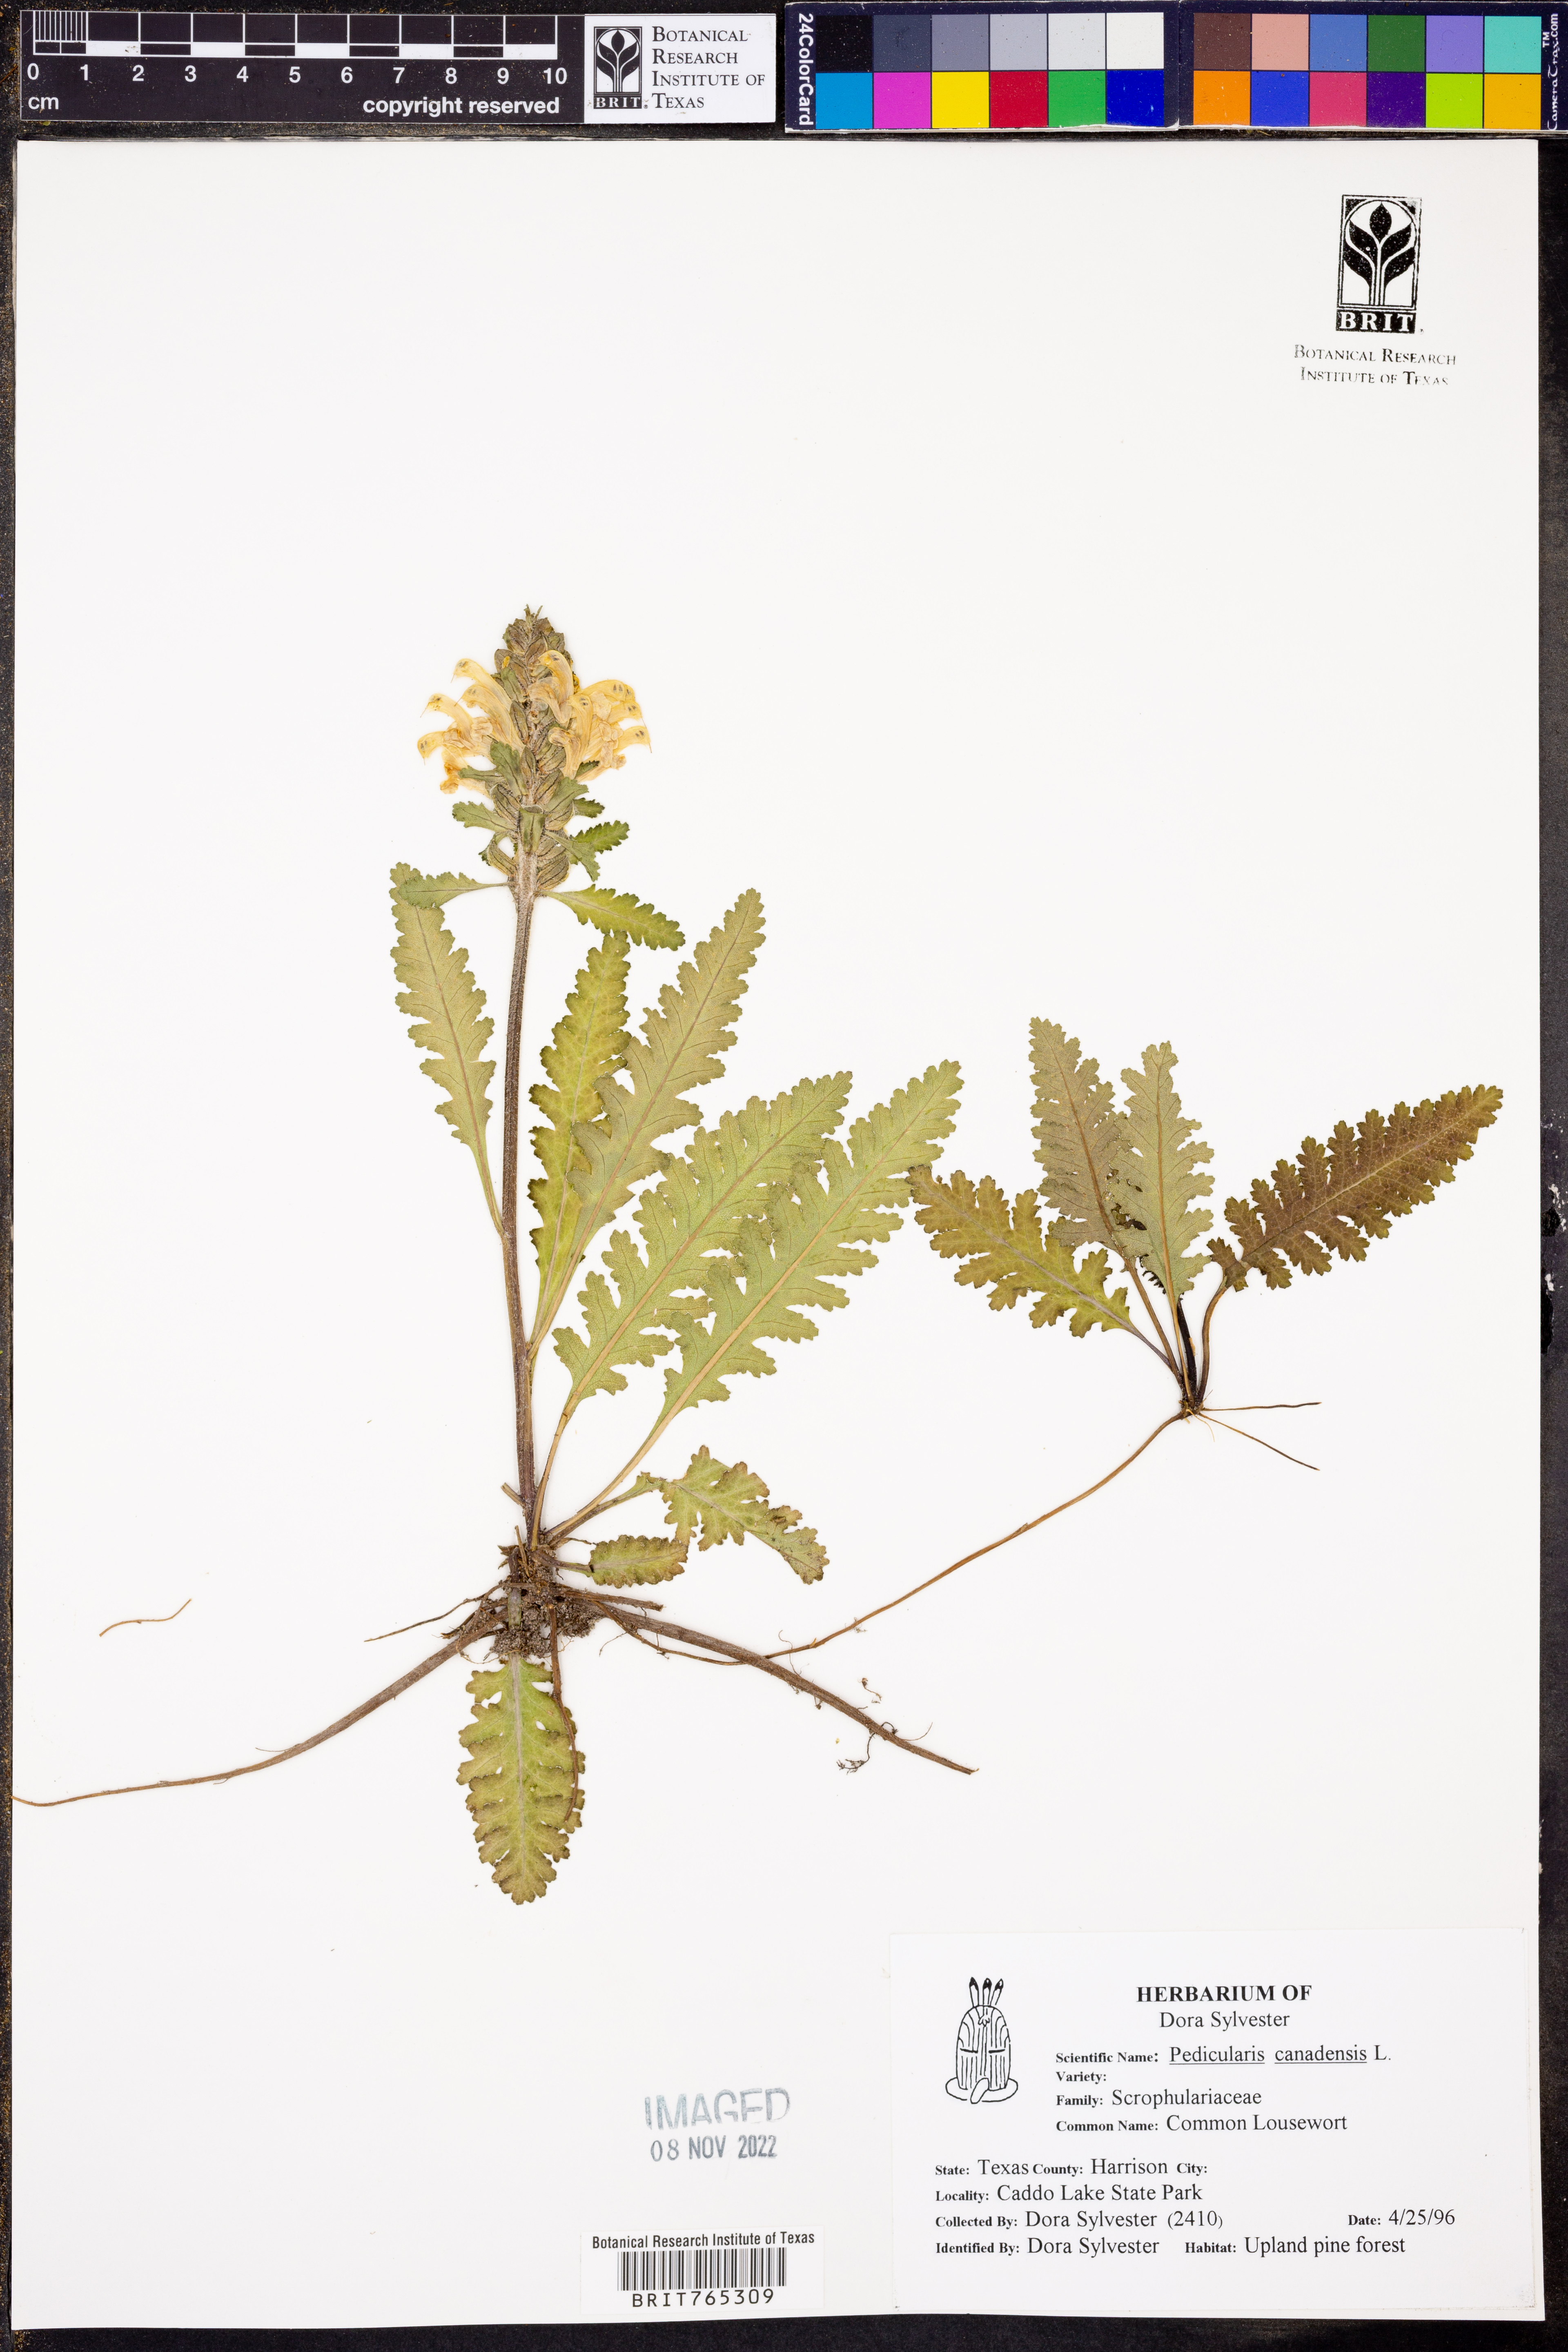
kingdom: Plantae
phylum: Tracheophyta
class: Magnoliopsida
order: Lamiales
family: Orobanchaceae
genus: Pedicularis
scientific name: Pedicularis canadensis
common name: Early lousewort
